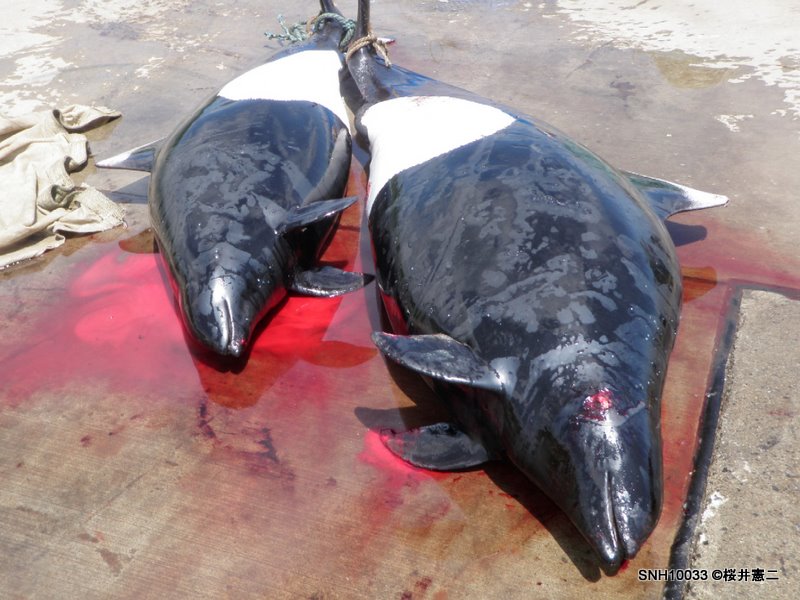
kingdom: Animalia
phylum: Chordata
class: Mammalia
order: Cetacea
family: Phocoenidae
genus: Phocoenoides
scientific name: Phocoenoides dalli
